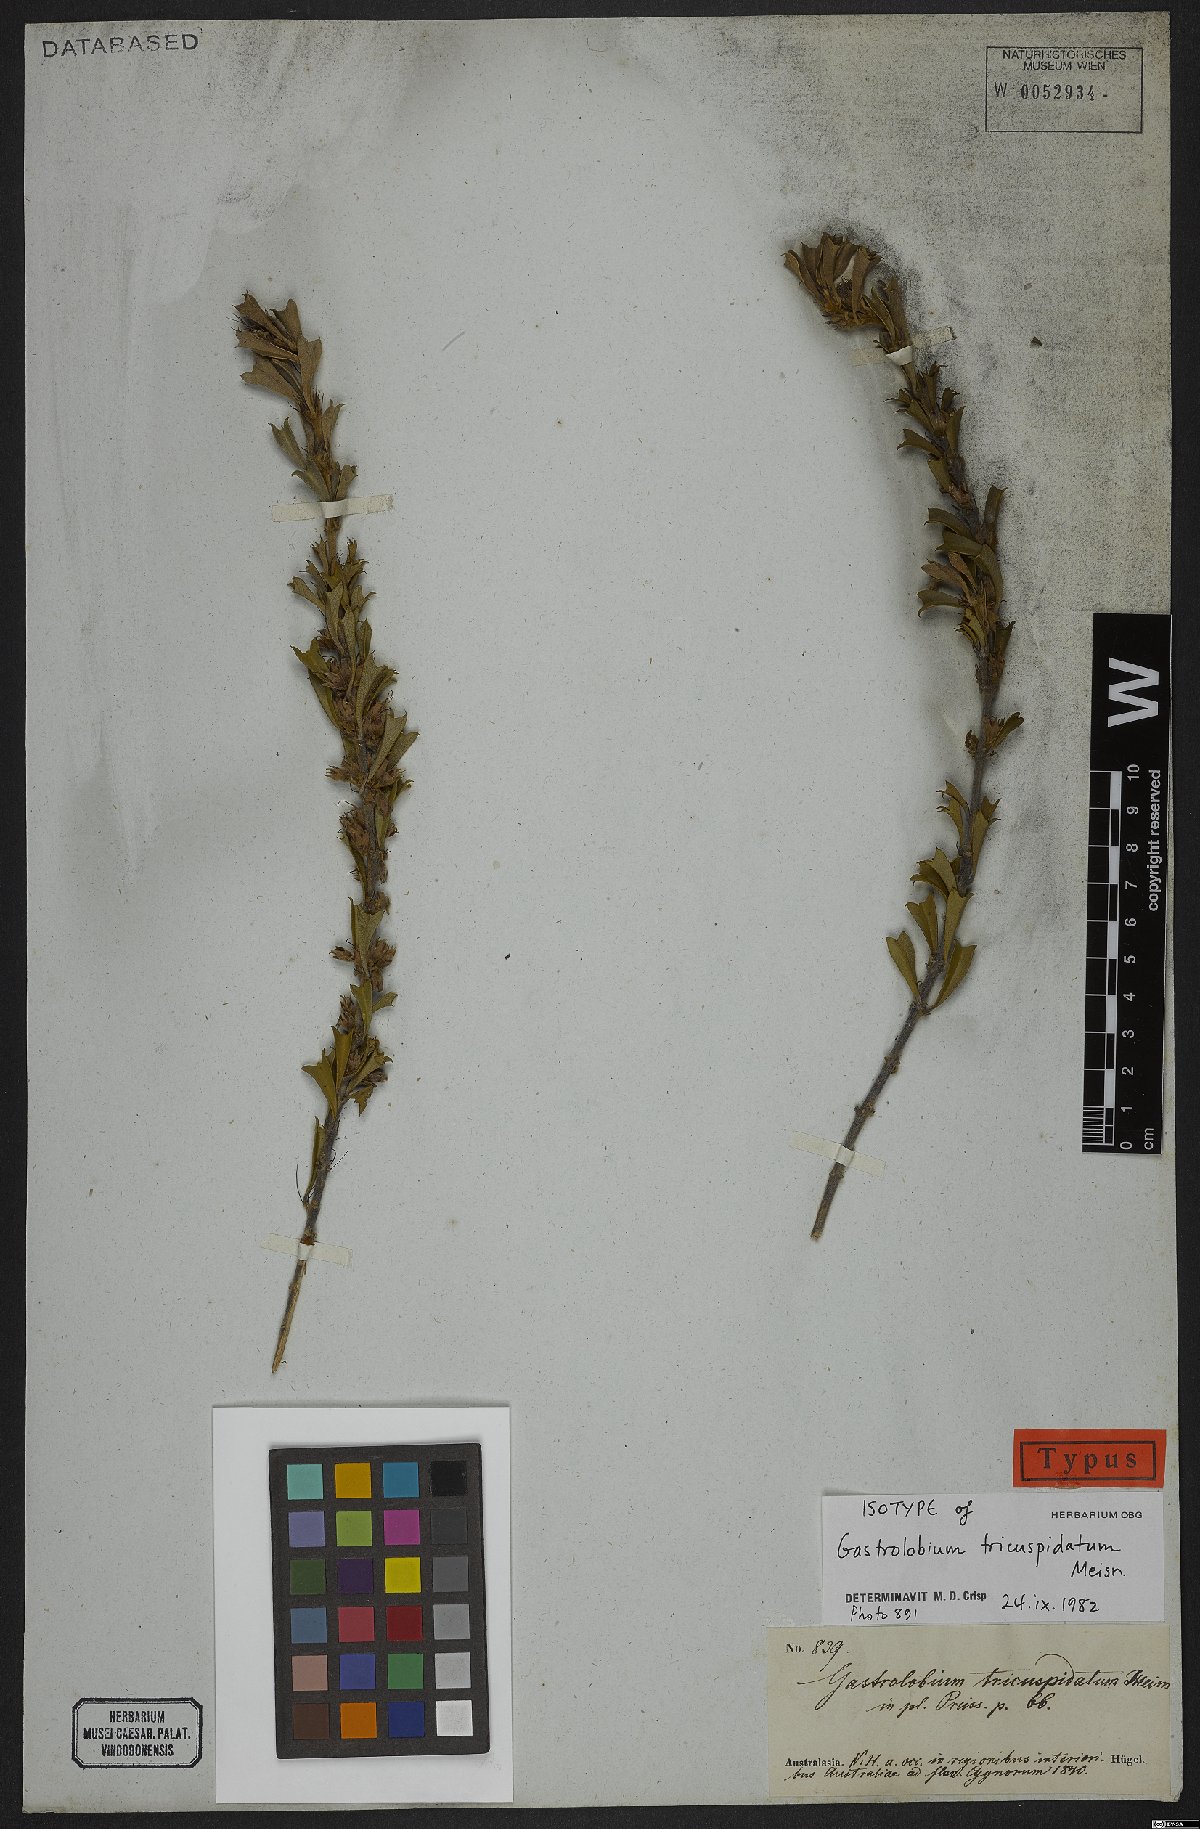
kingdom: Plantae
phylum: Tracheophyta
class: Magnoliopsida
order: Fabales
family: Fabaceae
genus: Gastrolobium
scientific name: Gastrolobium tricuspidatum
